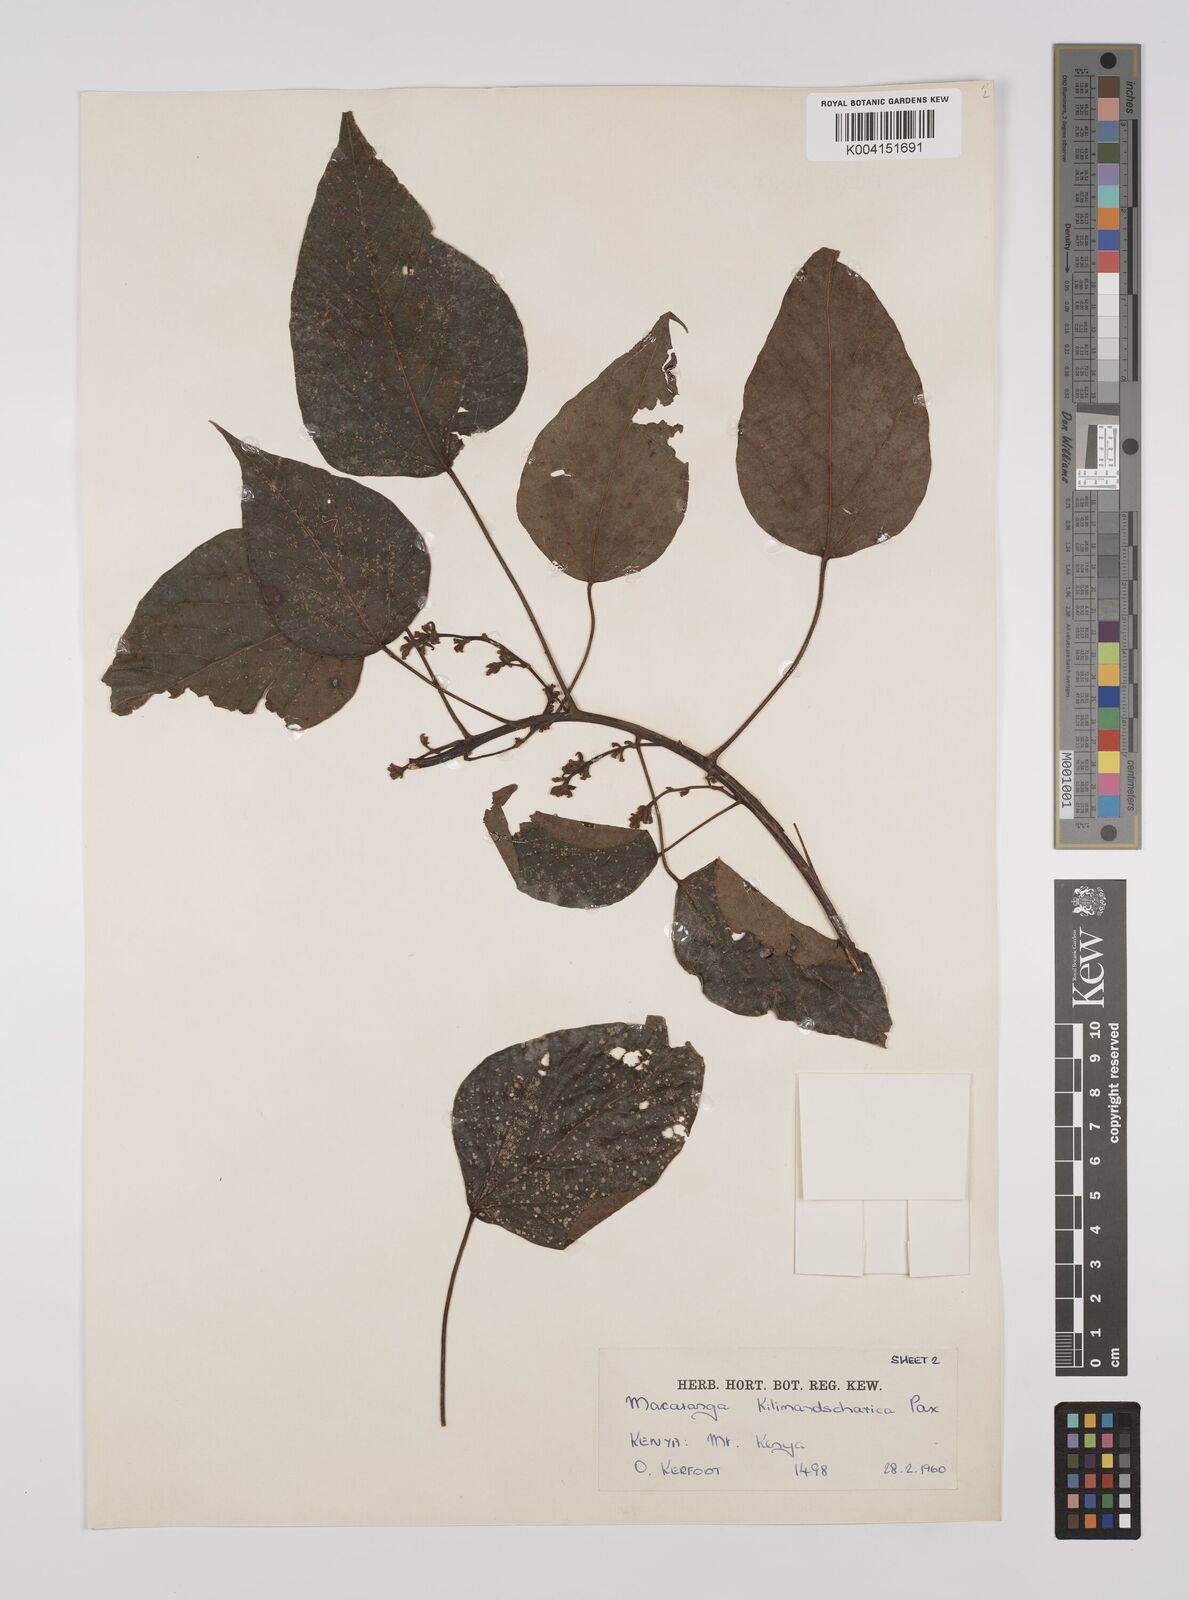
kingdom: Plantae
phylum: Tracheophyta
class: Magnoliopsida
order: Malpighiales
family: Euphorbiaceae
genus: Macaranga
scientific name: Macaranga kilimandscharica
